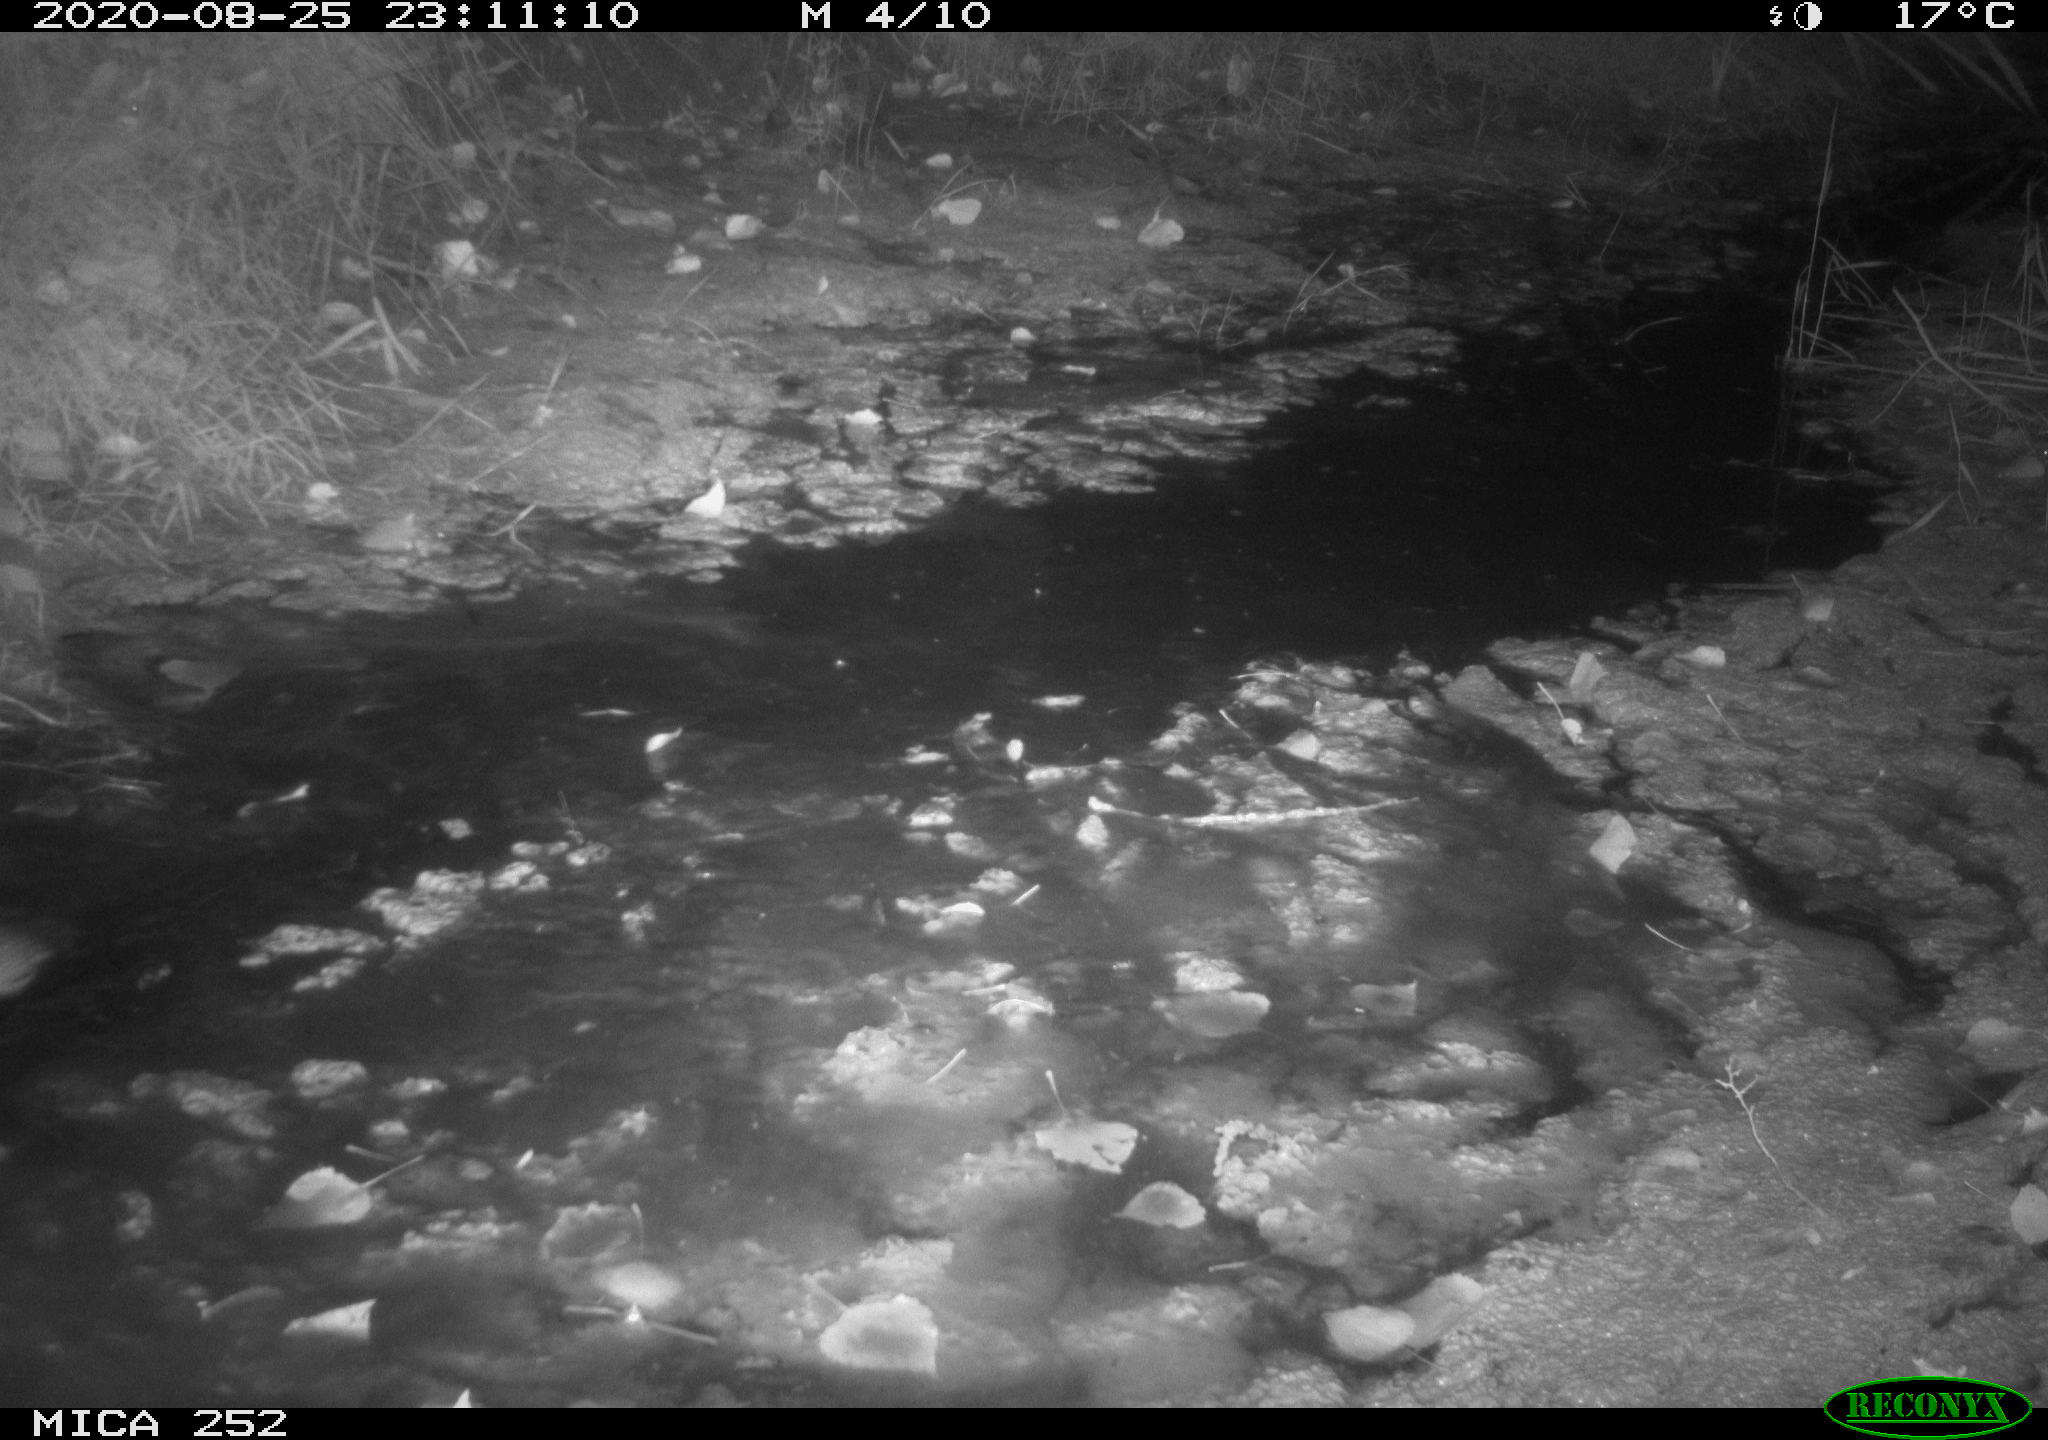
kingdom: Animalia
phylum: Chordata
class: Mammalia
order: Rodentia
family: Castoridae
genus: Castor
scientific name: Castor fiber
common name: Eurasian beaver
